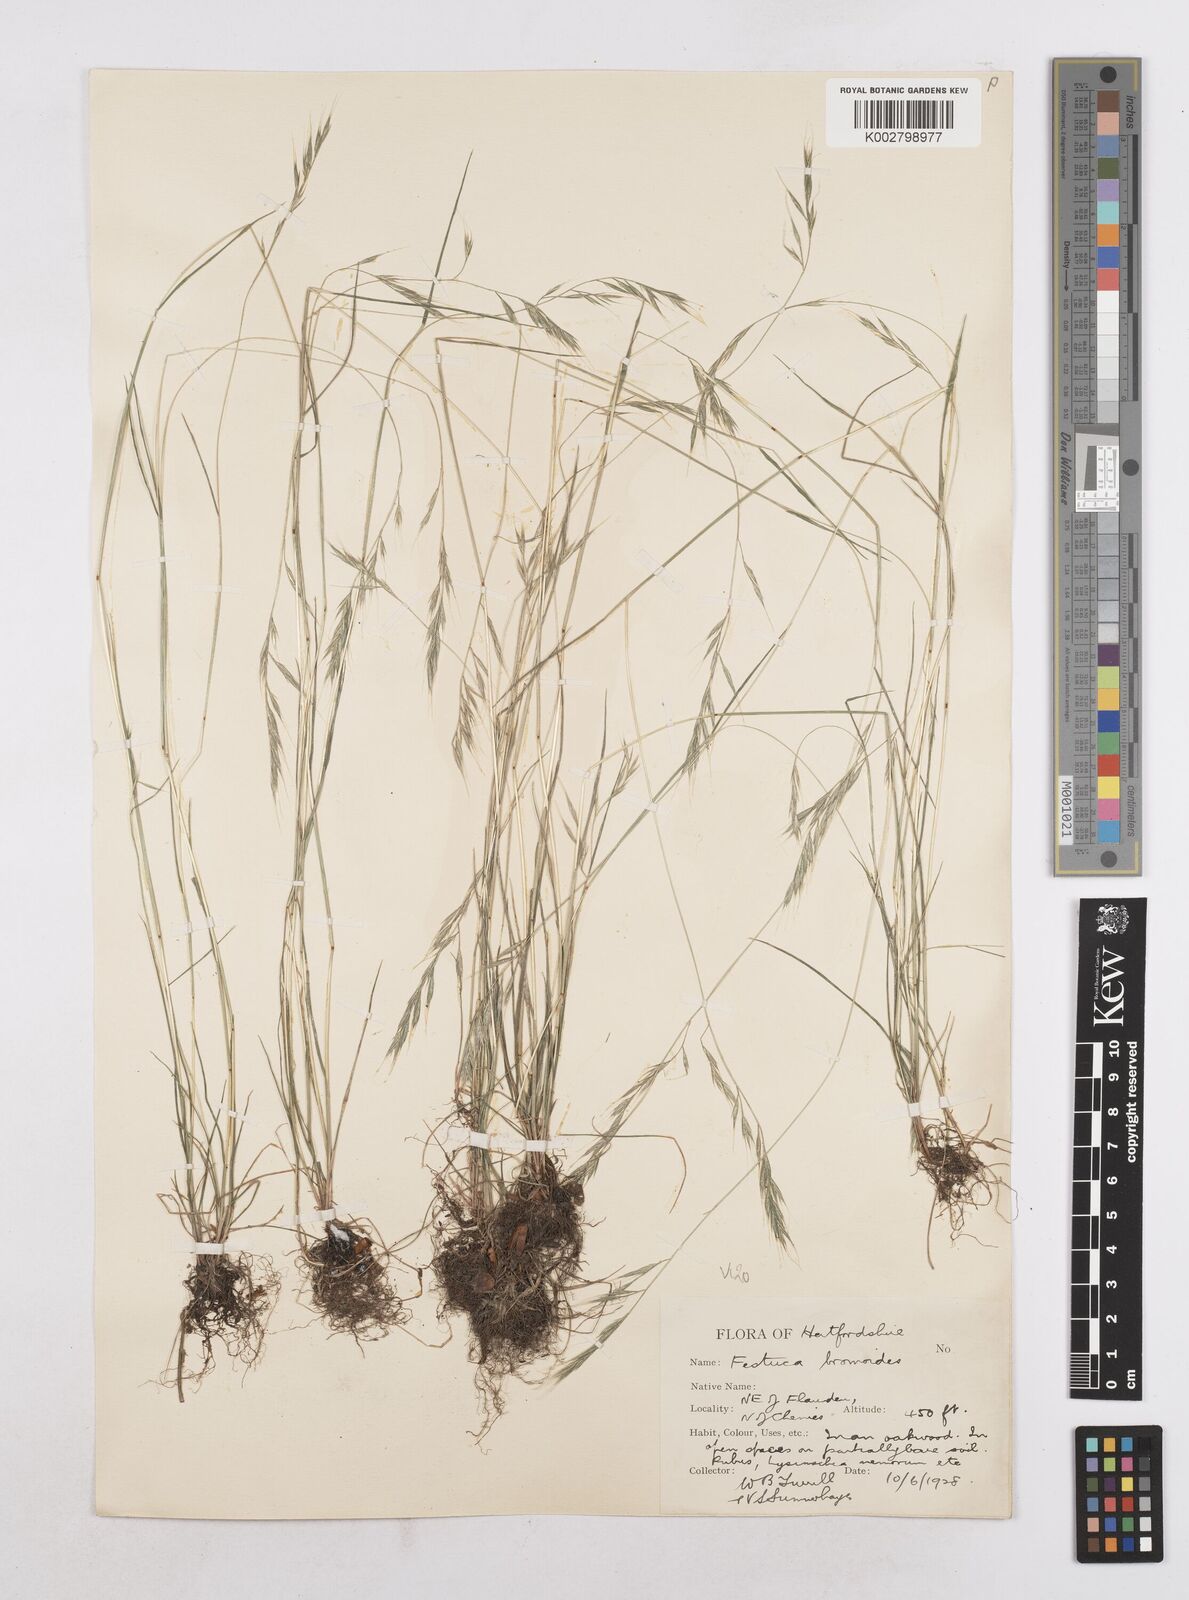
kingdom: Plantae
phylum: Tracheophyta
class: Liliopsida
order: Poales
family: Poaceae
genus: Festuca
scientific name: Festuca bromoides
